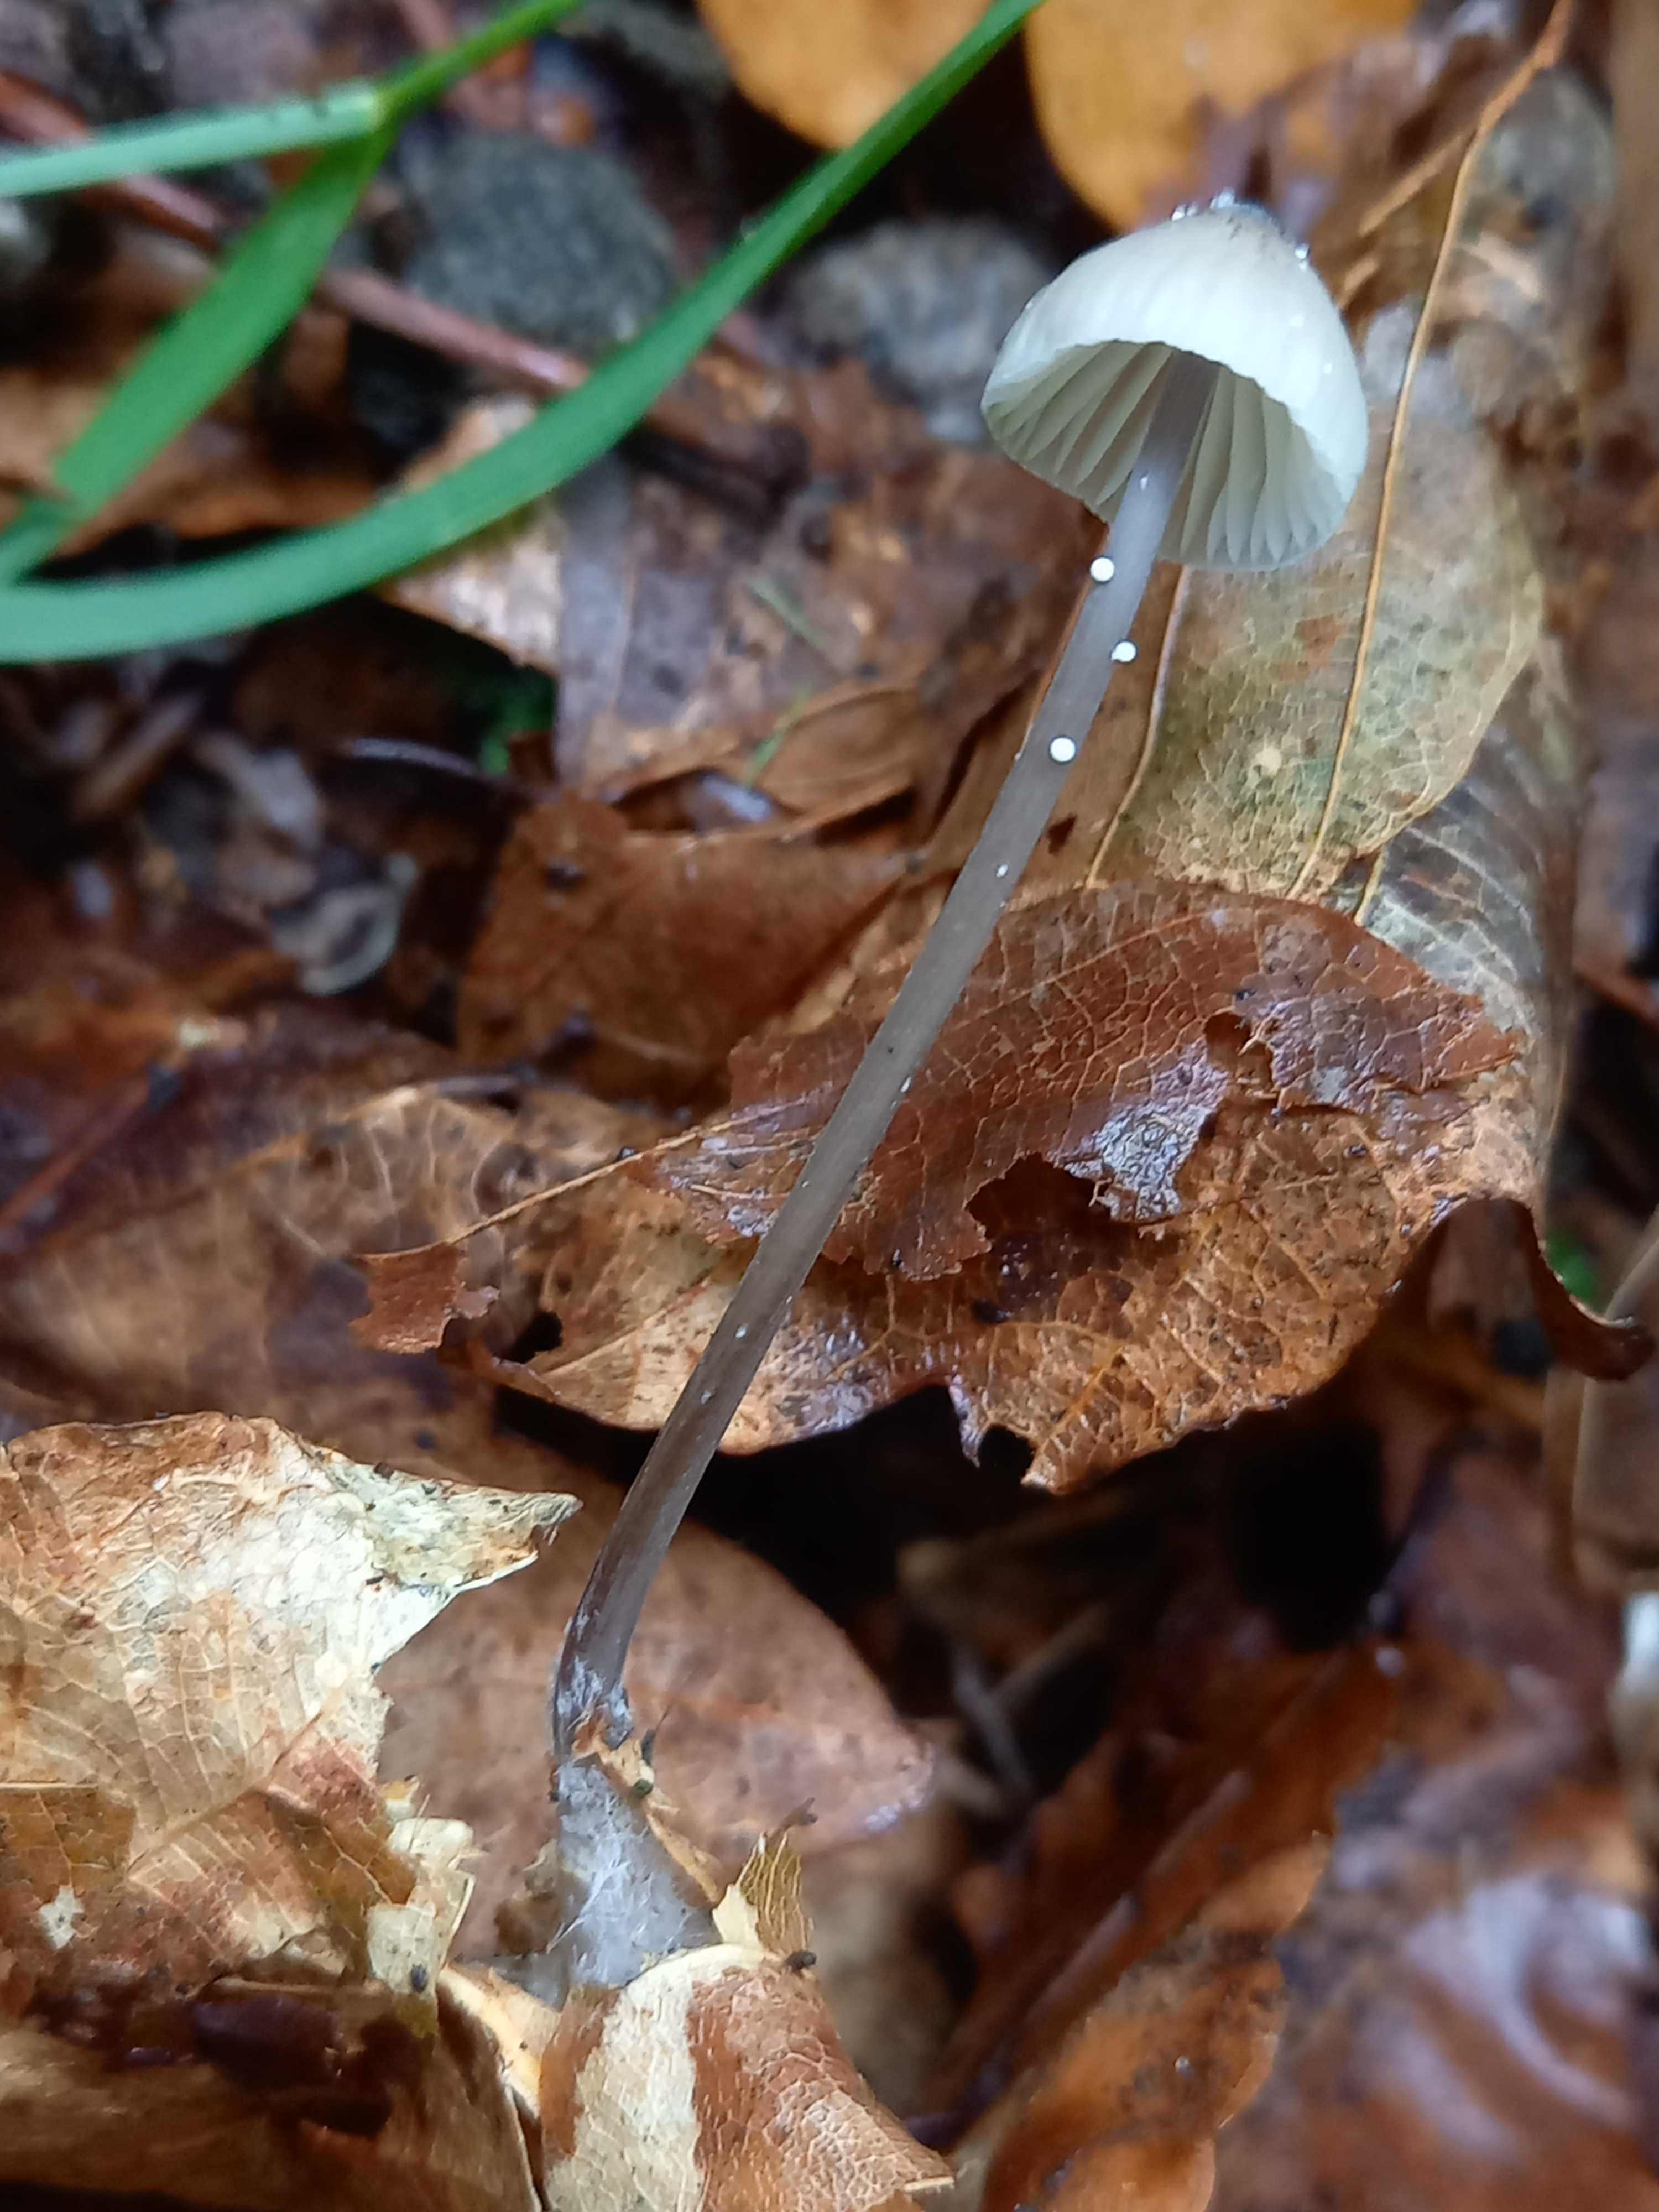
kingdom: Fungi
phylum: Basidiomycota
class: Agaricomycetes
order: Agaricales
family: Mycenaceae
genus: Mycena
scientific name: Mycena galopus
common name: hvidmælket huesvamp
